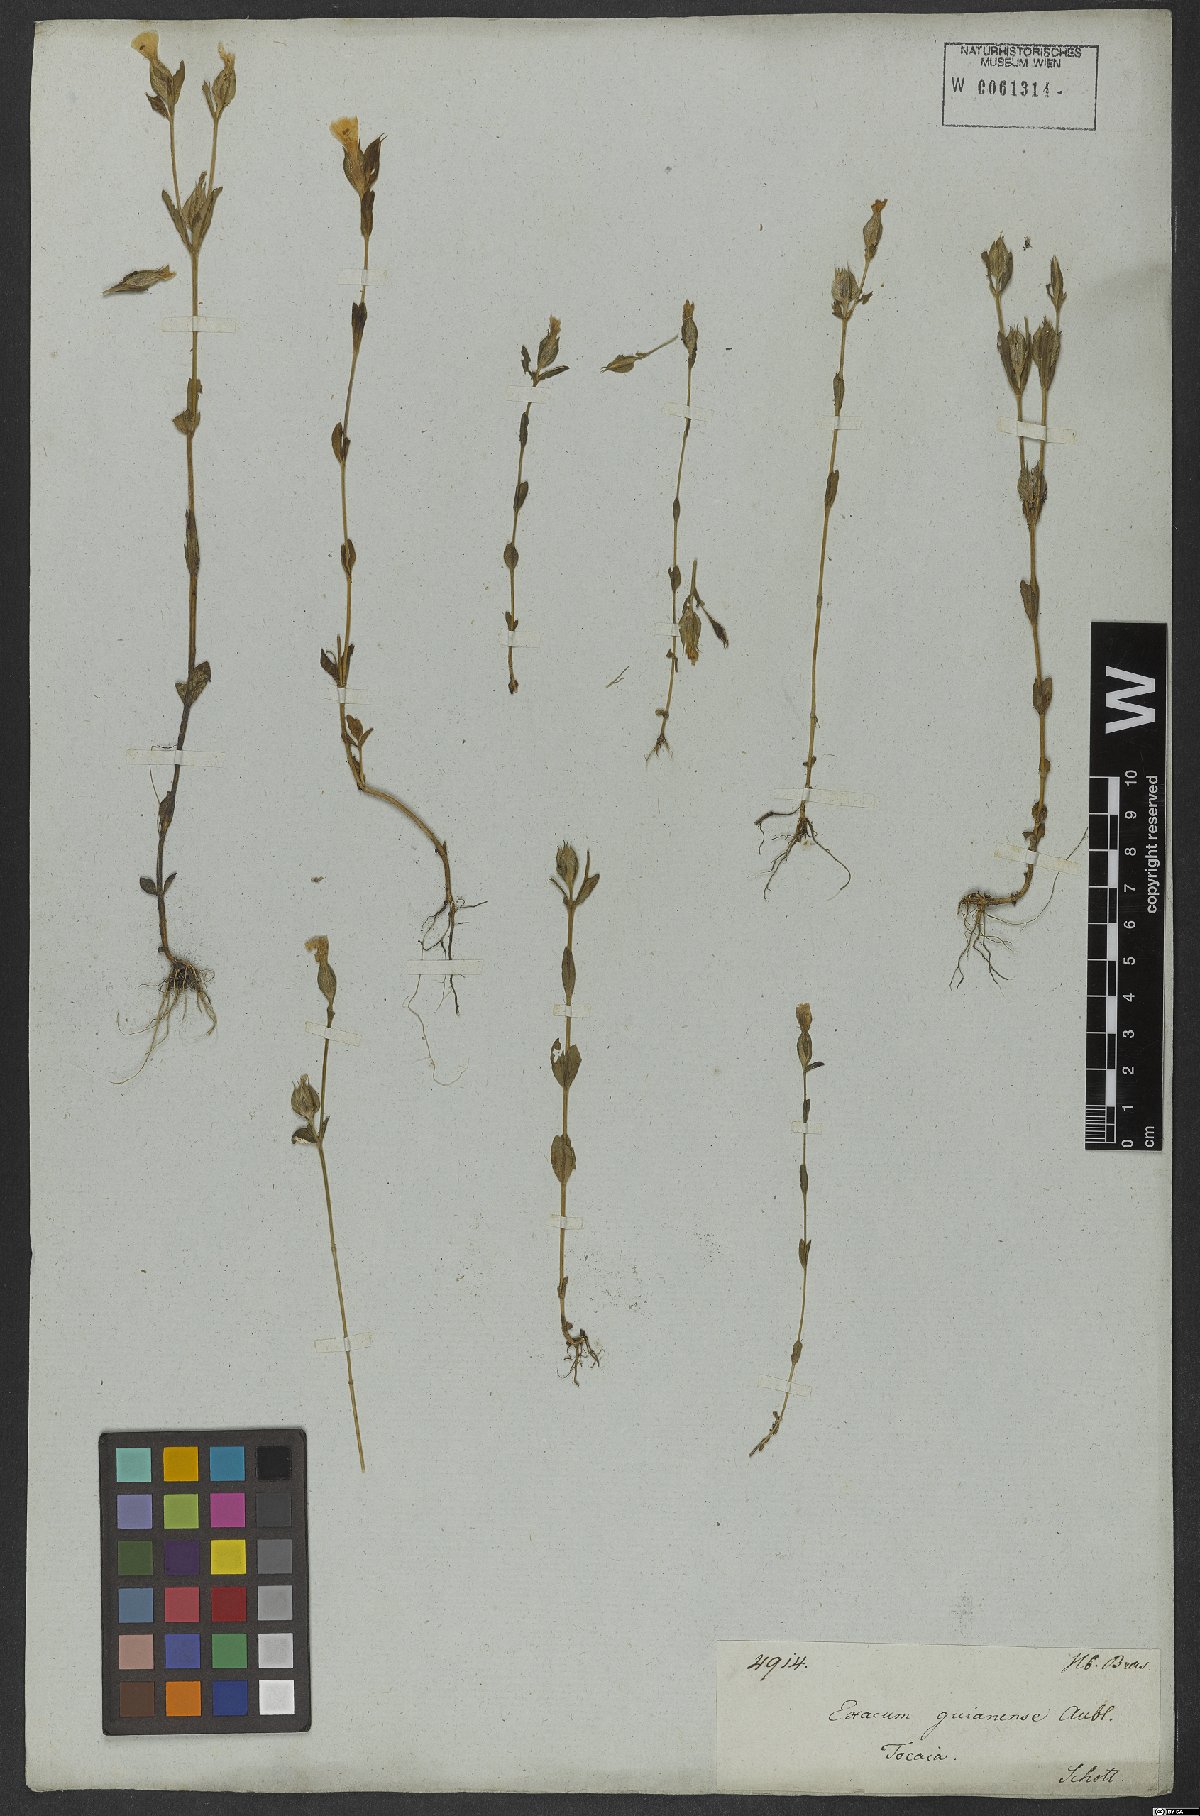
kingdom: Plantae
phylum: Tracheophyta
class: Magnoliopsida
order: Gentianales
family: Gentianaceae
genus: Exacum
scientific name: Exacum
